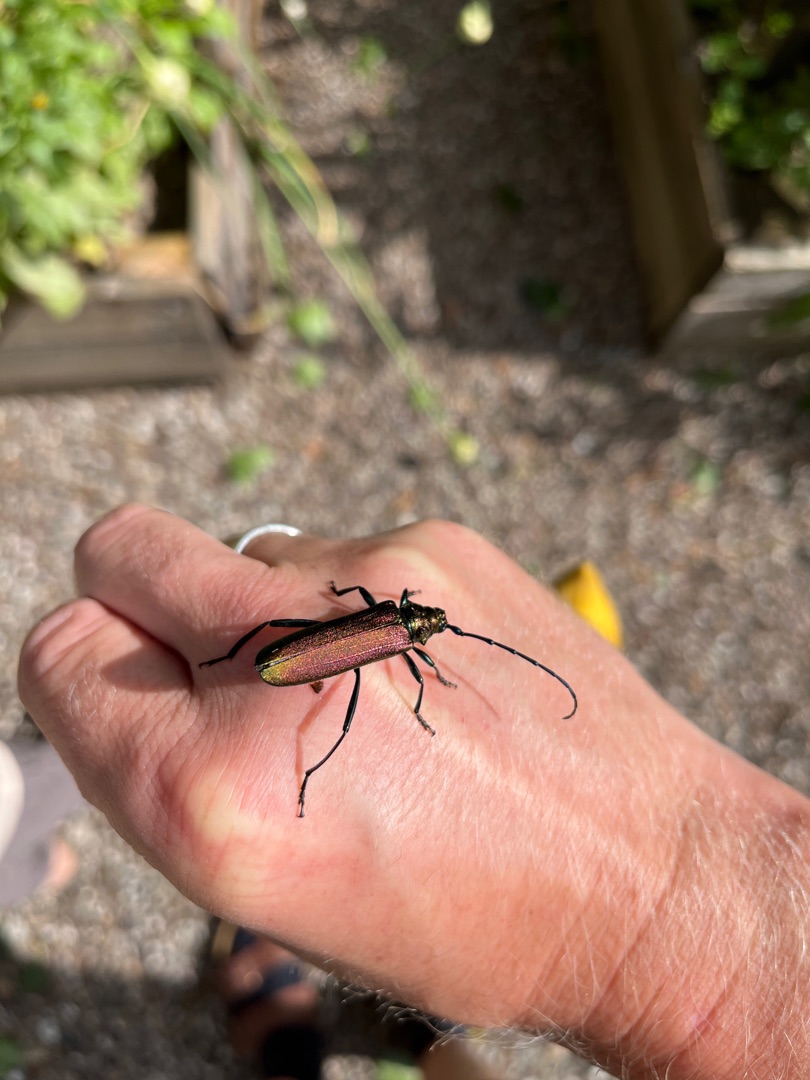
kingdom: Animalia
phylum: Arthropoda
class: Insecta
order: Coleoptera
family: Cerambycidae
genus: Aromia
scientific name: Aromia moschata
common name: Moskusbuk
